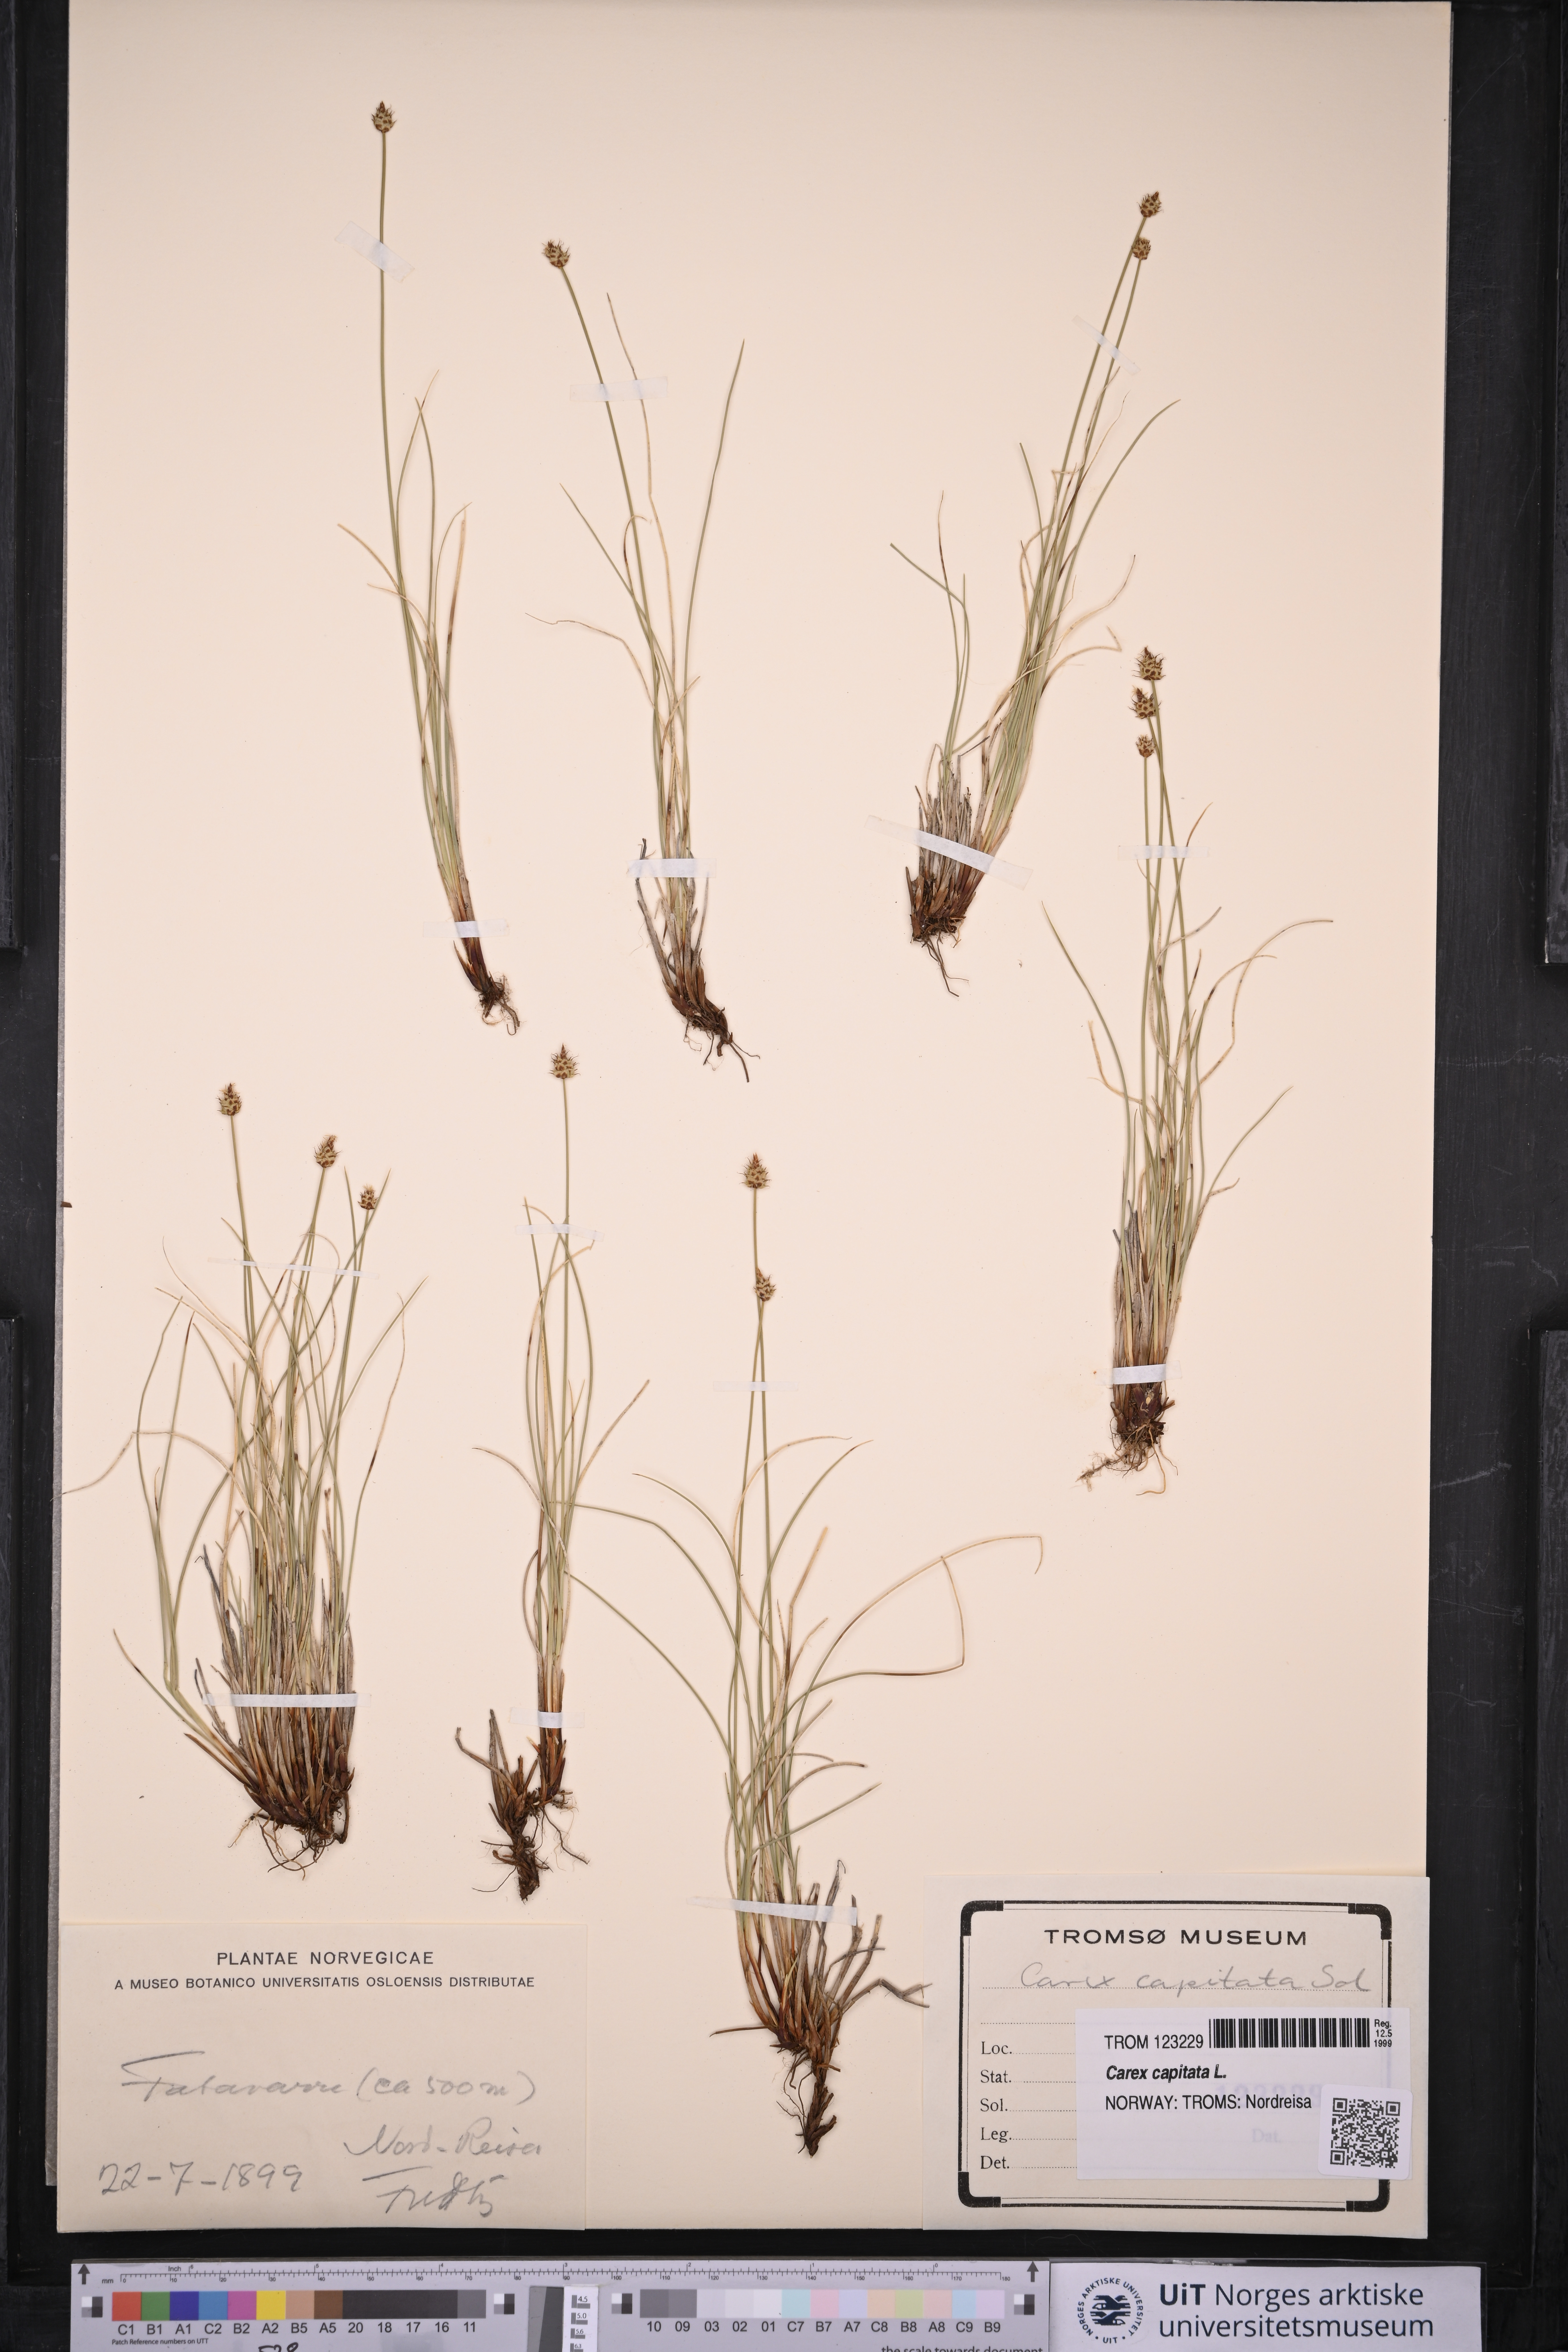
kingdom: Plantae
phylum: Tracheophyta
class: Liliopsida
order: Poales
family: Cyperaceae
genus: Carex
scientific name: Carex capitata
